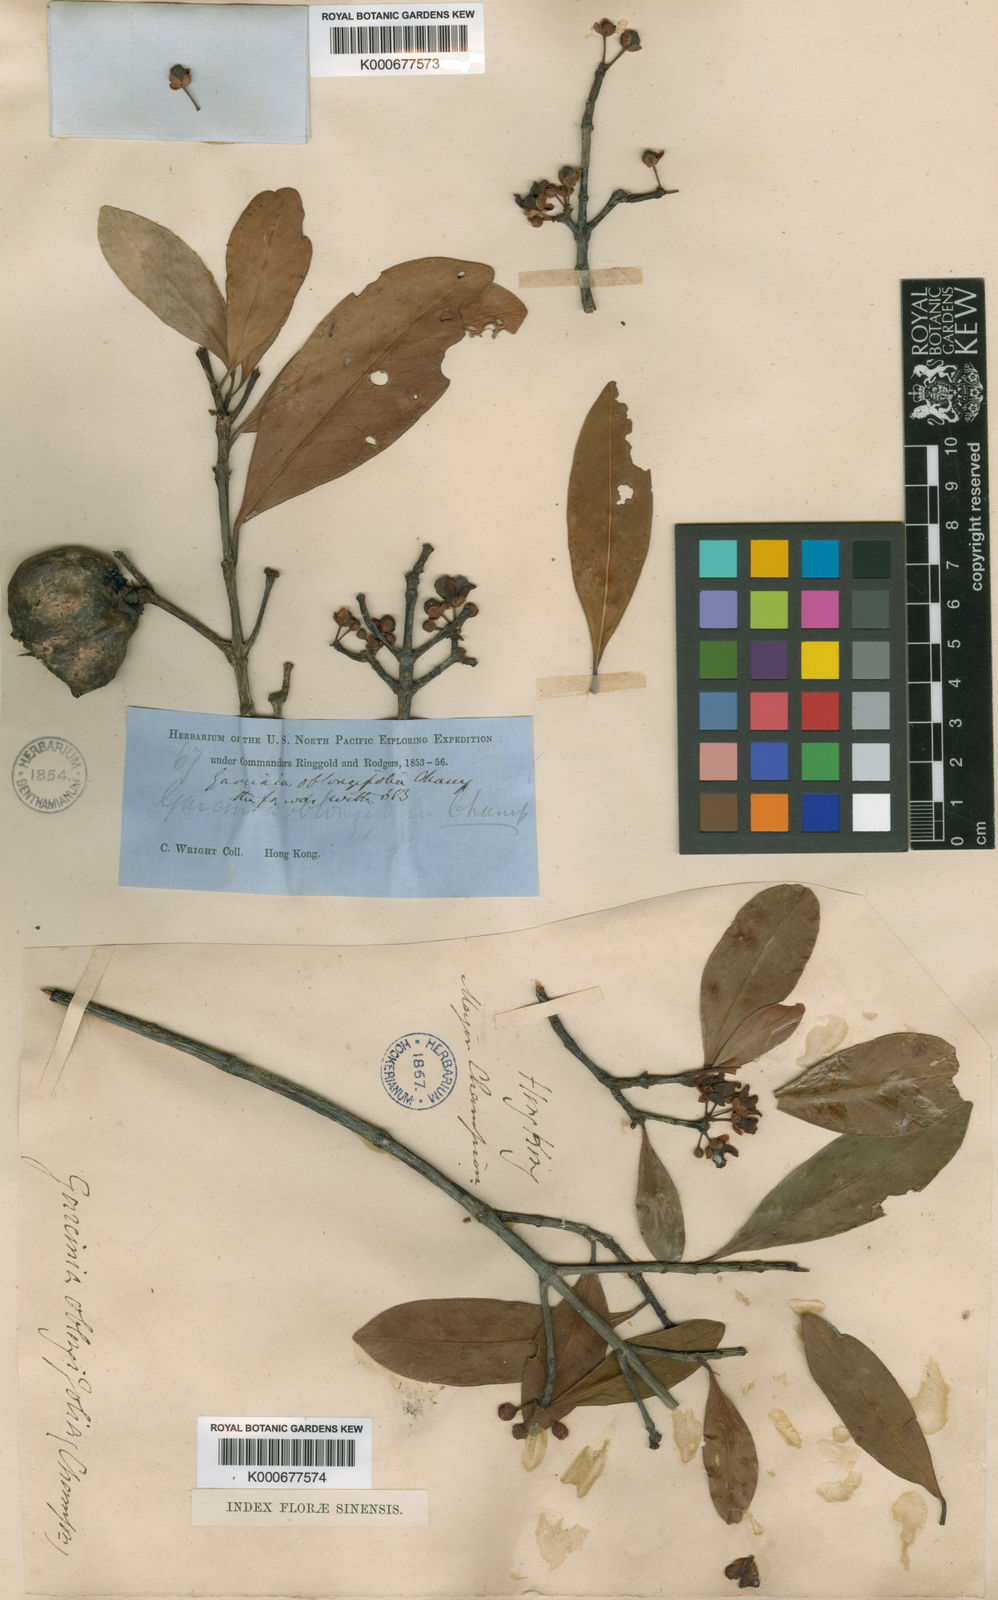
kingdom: Plantae
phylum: Tracheophyta
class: Magnoliopsida
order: Malpighiales
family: Clusiaceae
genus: Garcinia
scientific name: Garcinia oblongifolia
